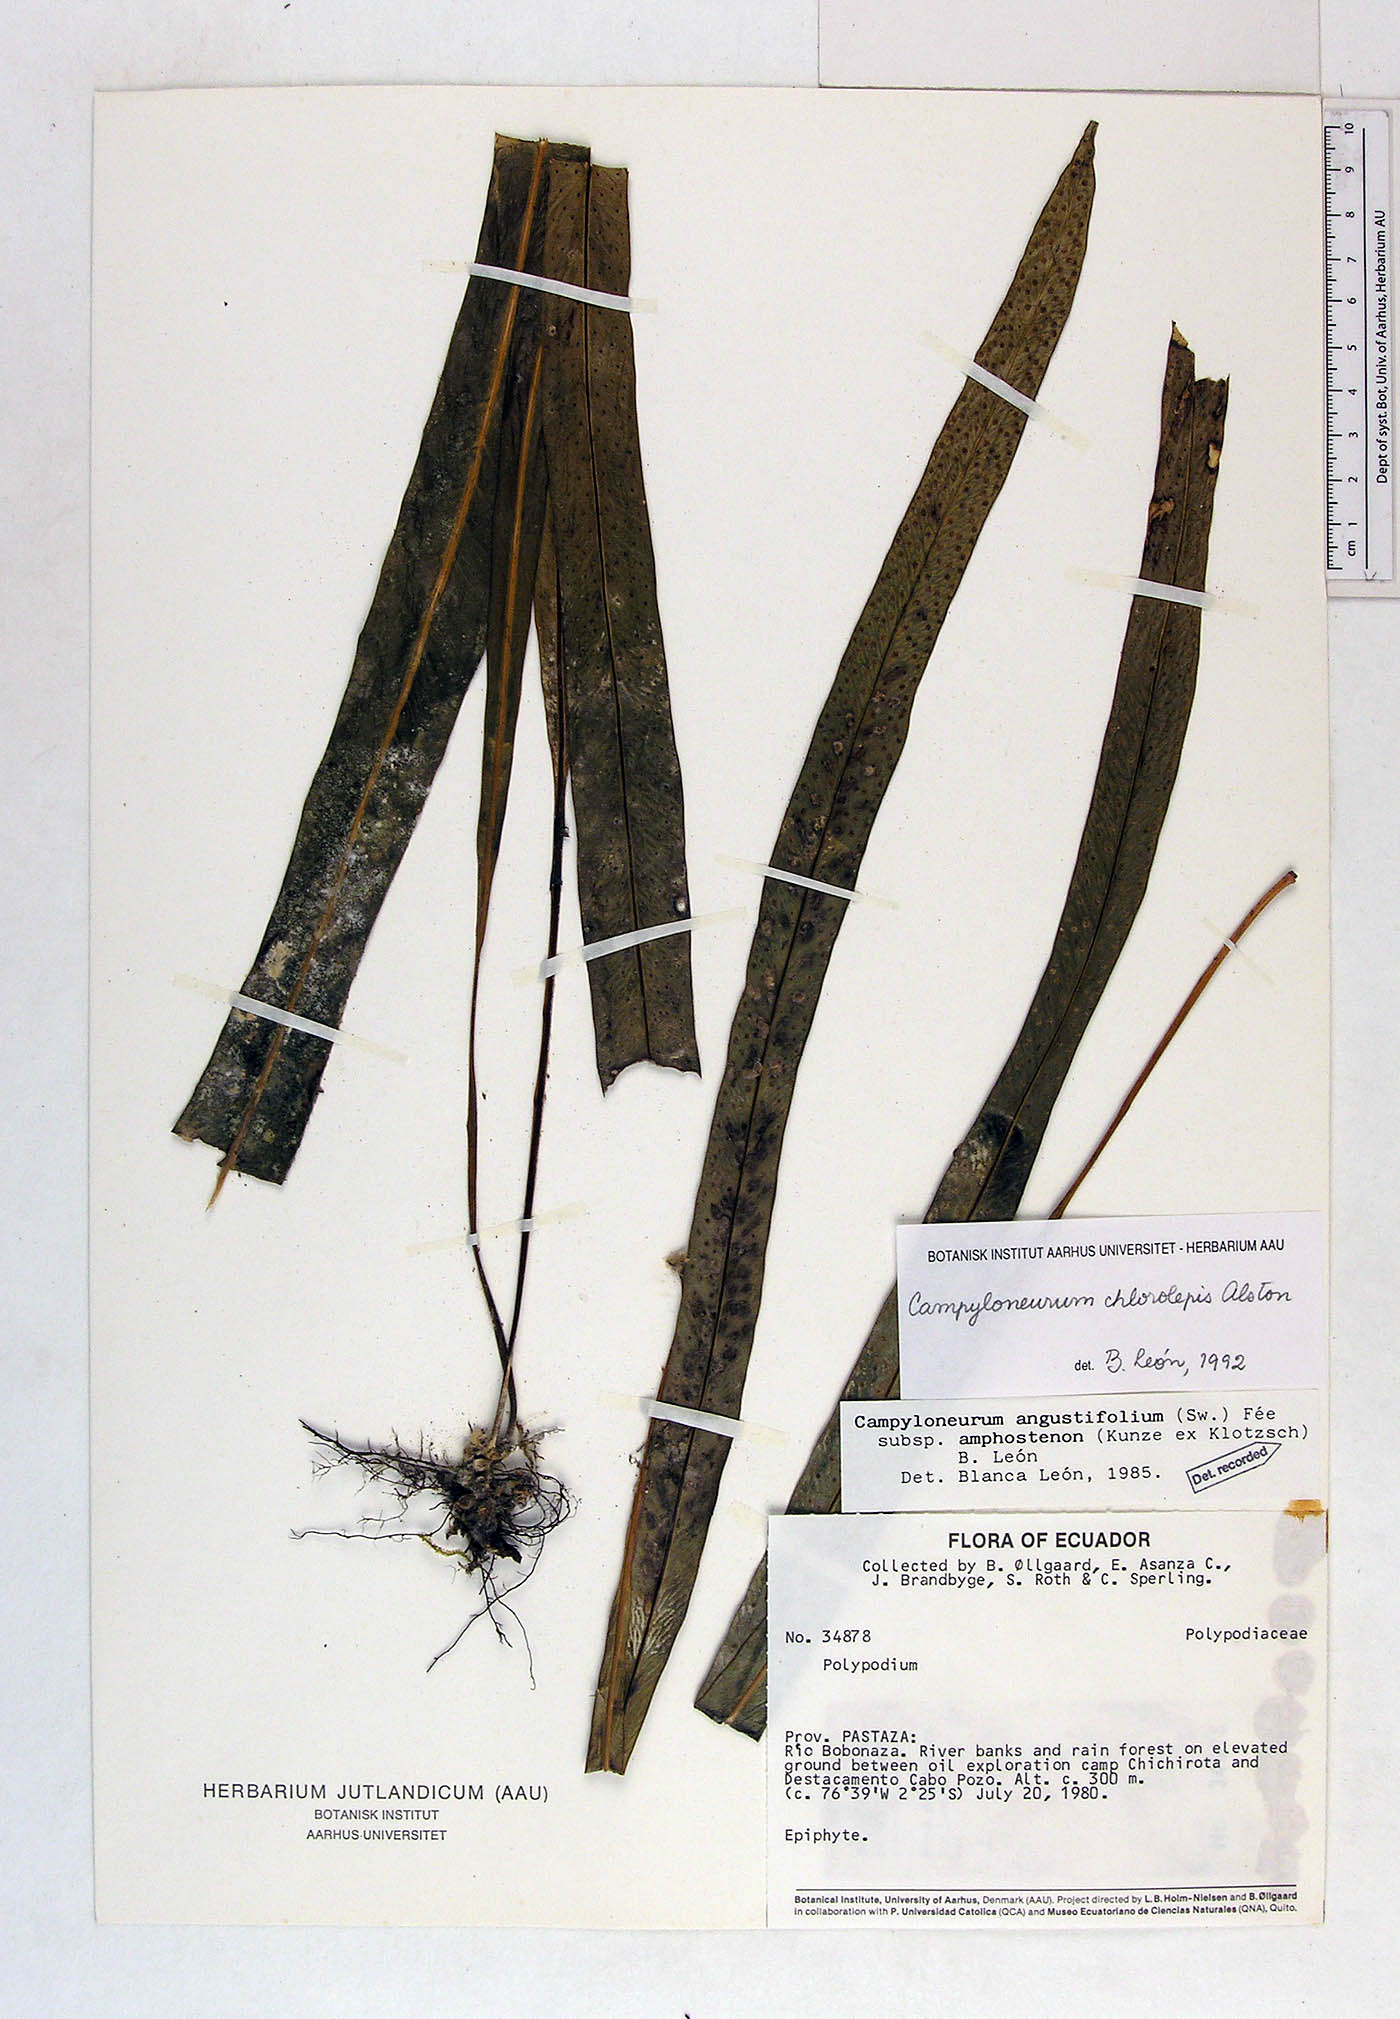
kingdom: Plantae
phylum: Tracheophyta
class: Polypodiopsida
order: Polypodiales
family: Polypodiaceae
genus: Campyloneurum
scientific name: Campyloneurum chlorolepis
